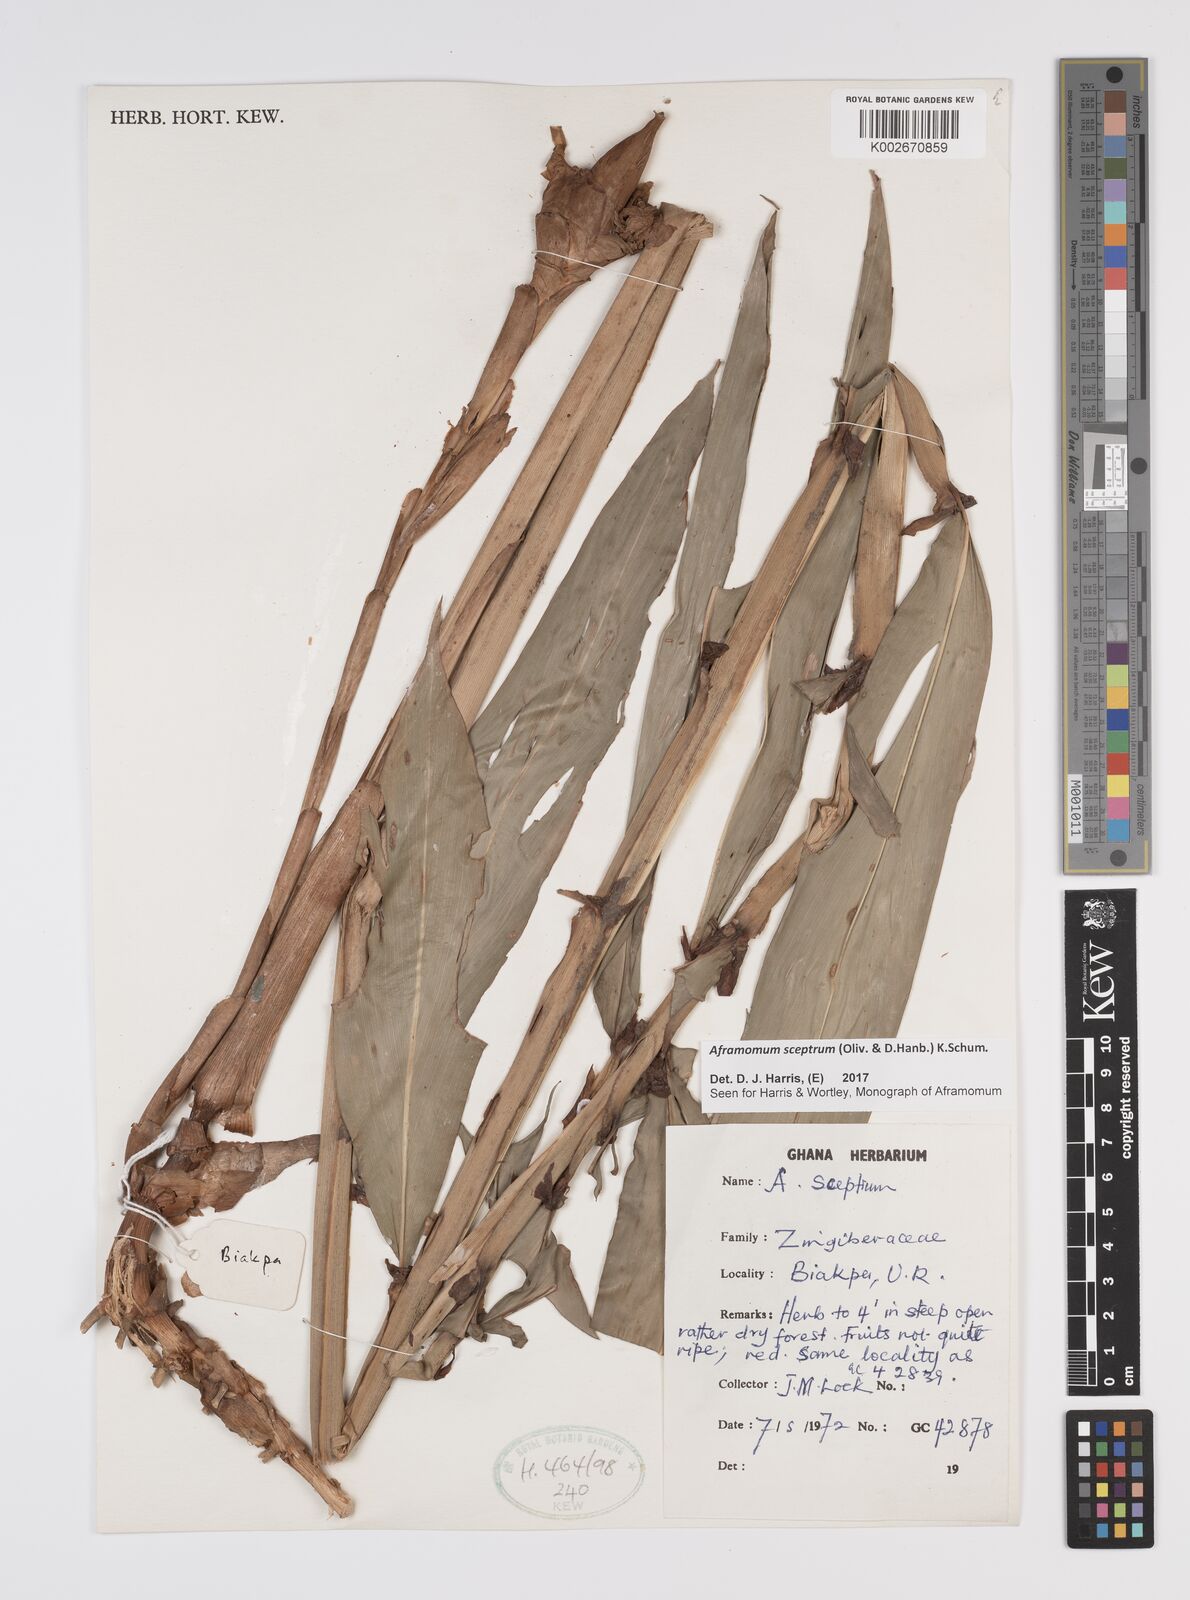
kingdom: Plantae
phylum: Tracheophyta
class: Liliopsida
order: Zingiberales
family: Zingiberaceae
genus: Aframomum
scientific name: Aframomum cereum
